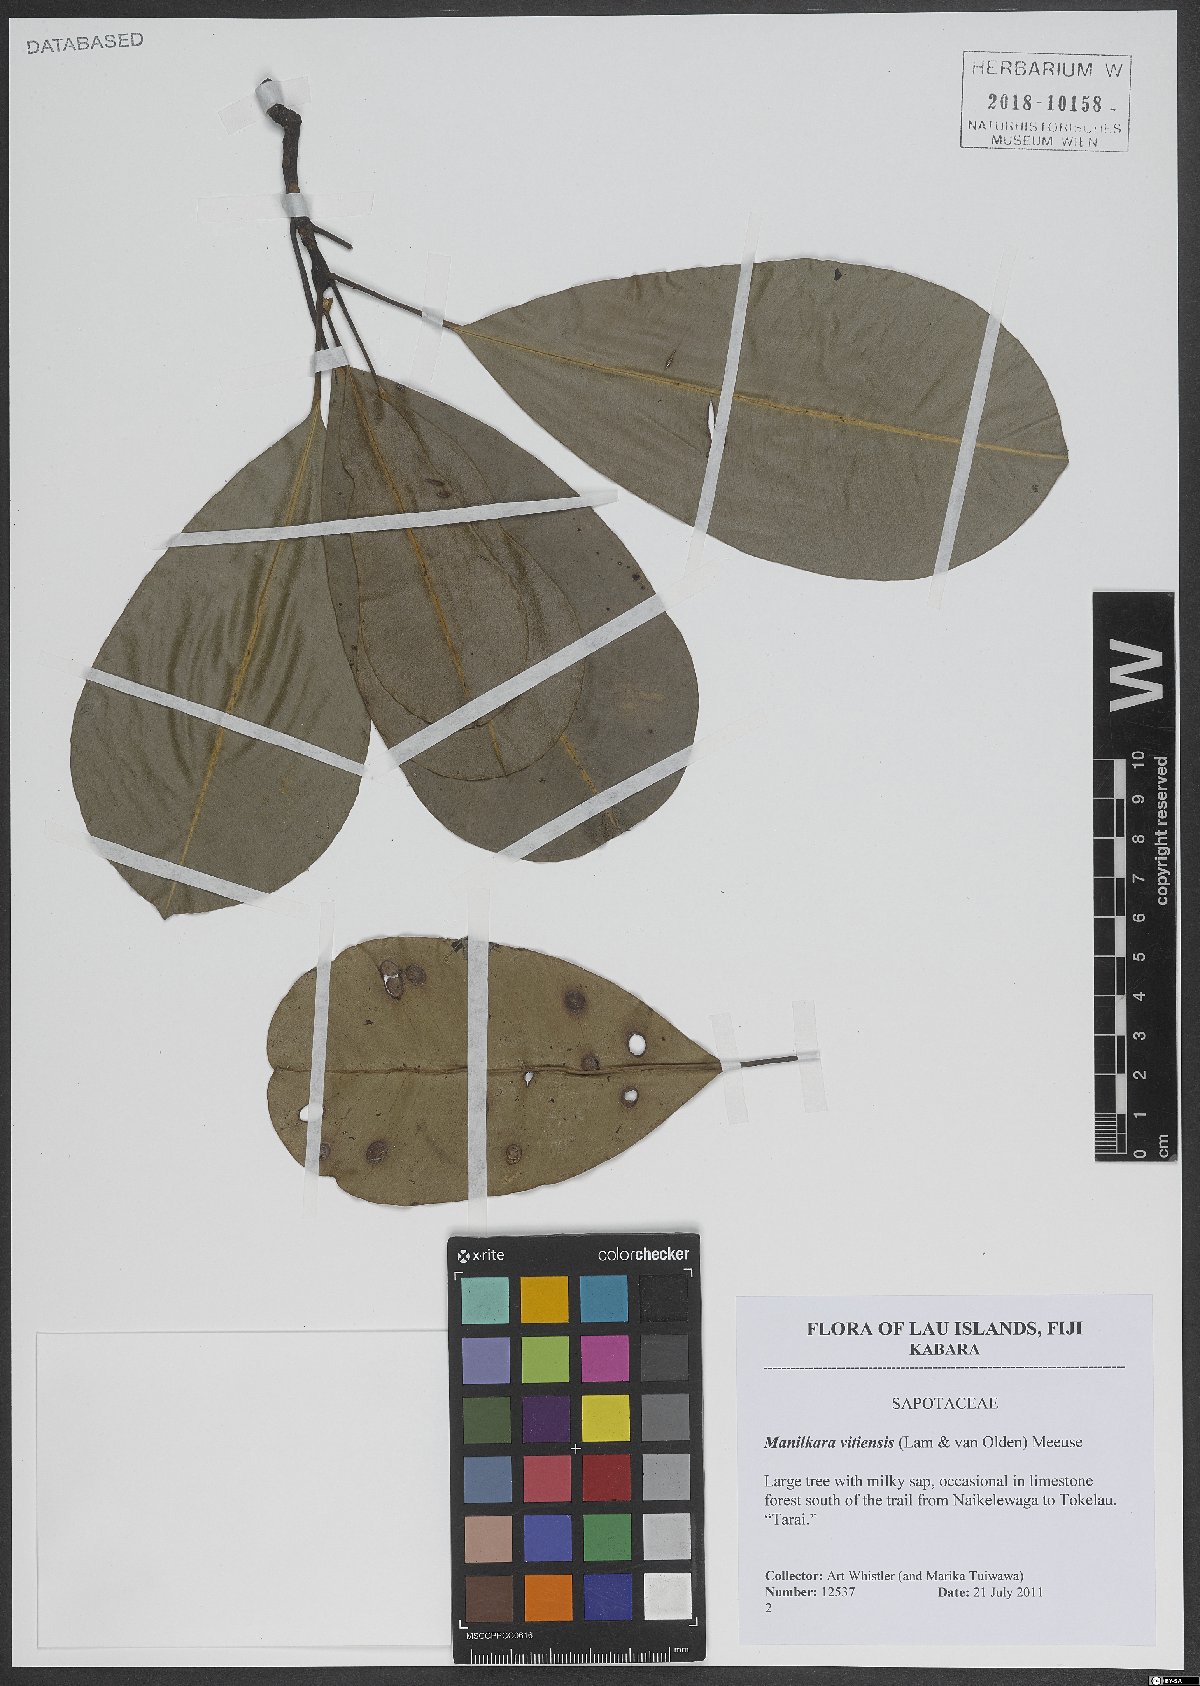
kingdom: Plantae
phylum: Tracheophyta
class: Magnoliopsida
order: Ericales
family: Sapotaceae
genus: Manilkara
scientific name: Manilkara vitiensis
